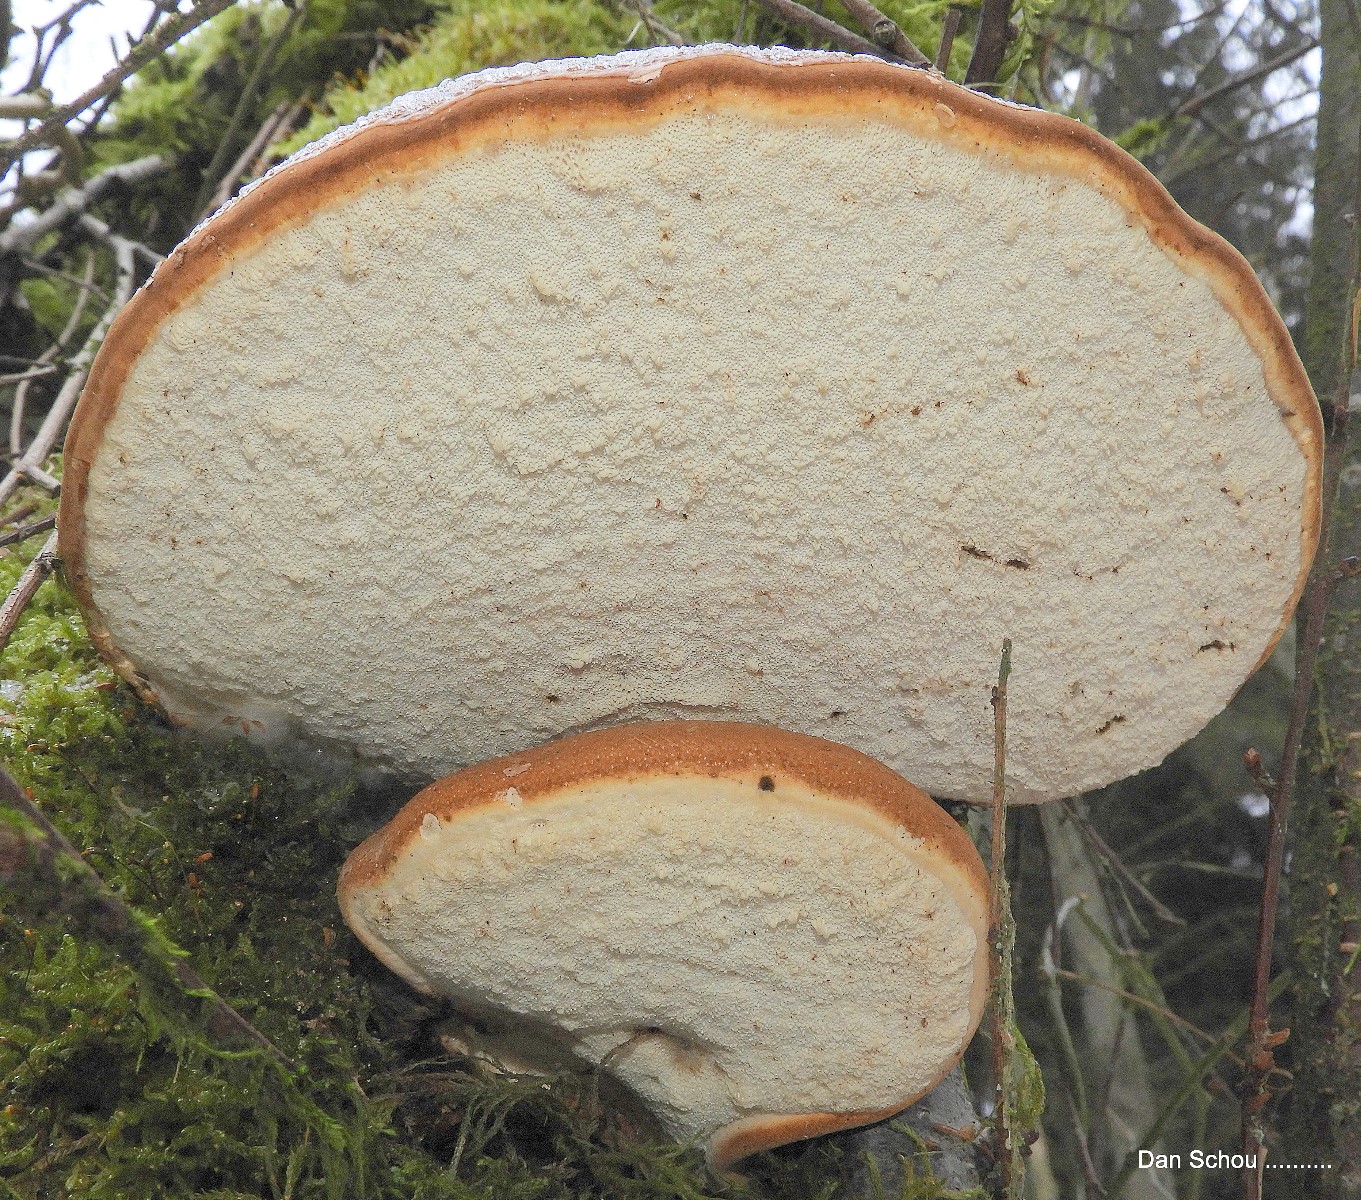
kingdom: Fungi
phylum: Basidiomycota
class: Agaricomycetes
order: Polyporales
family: Fomitopsidaceae
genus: Fomitopsis
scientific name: Fomitopsis betulina
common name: birkeporesvamp
